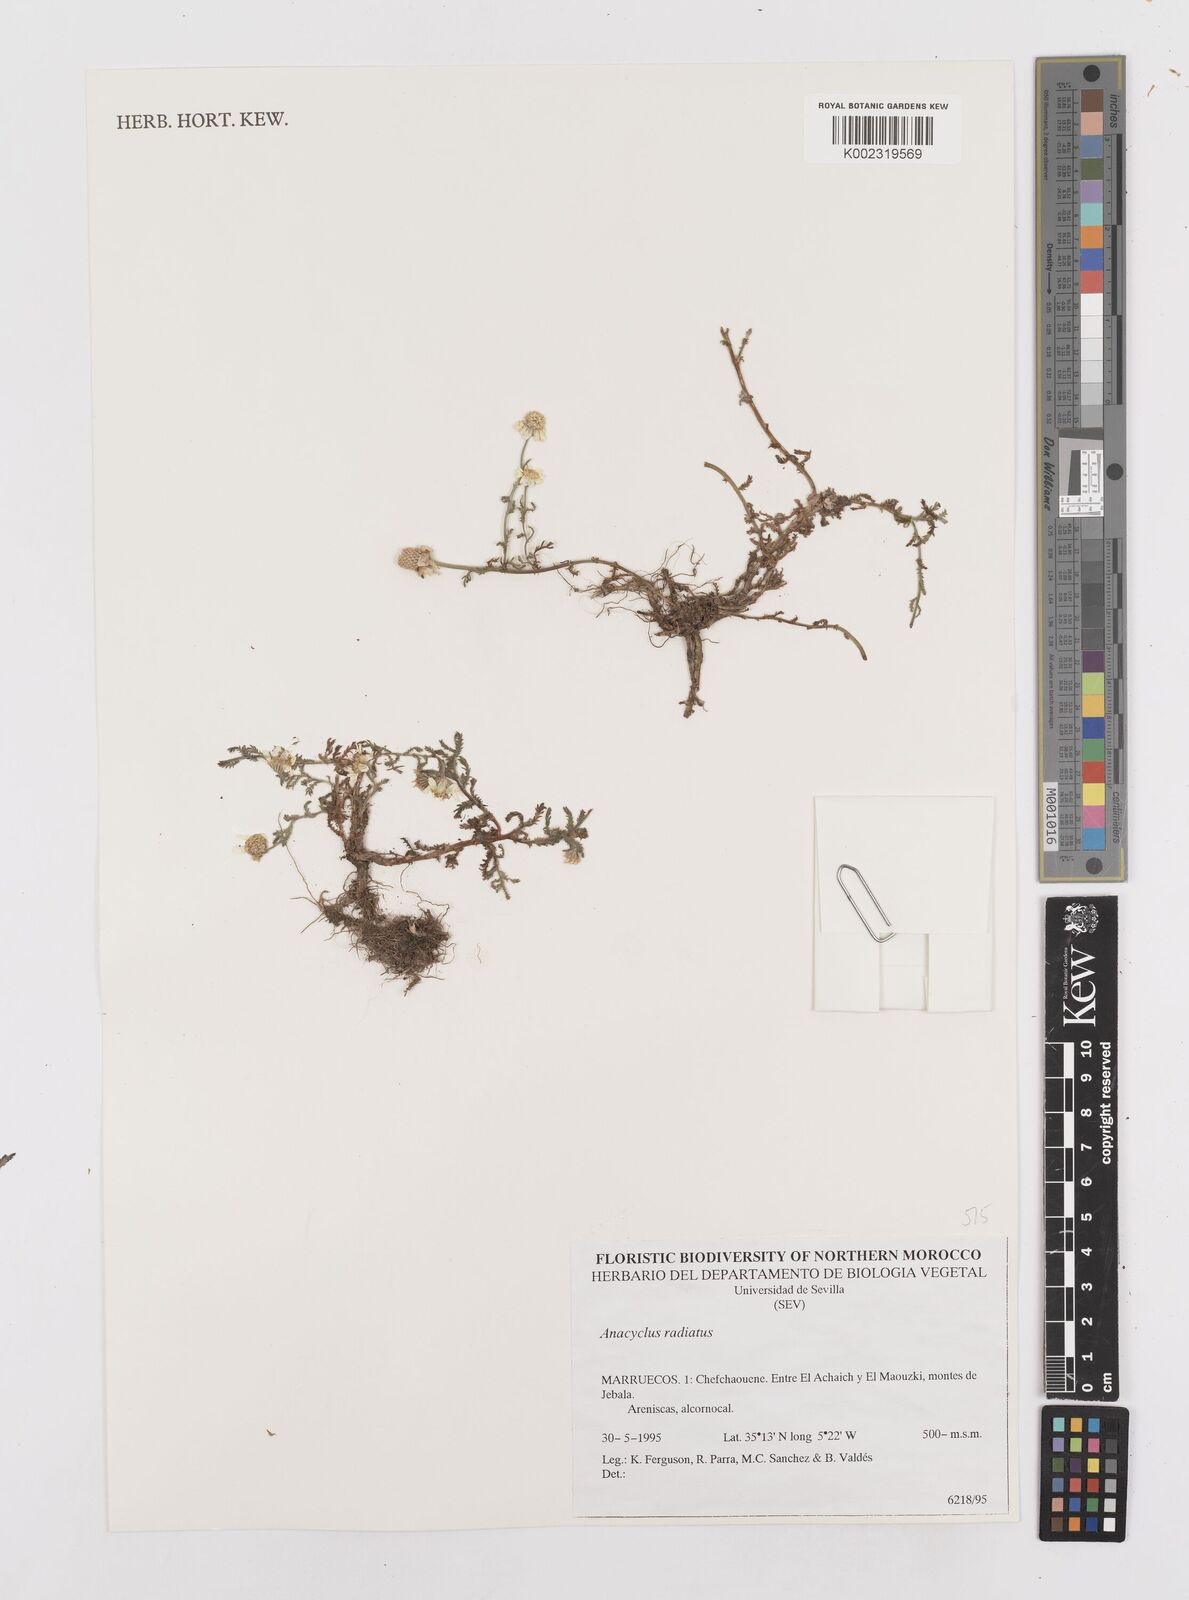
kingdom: Plantae
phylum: Tracheophyta
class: Magnoliopsida
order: Asterales
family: Asteraceae
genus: Anacyclus
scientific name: Anacyclus radiatus
